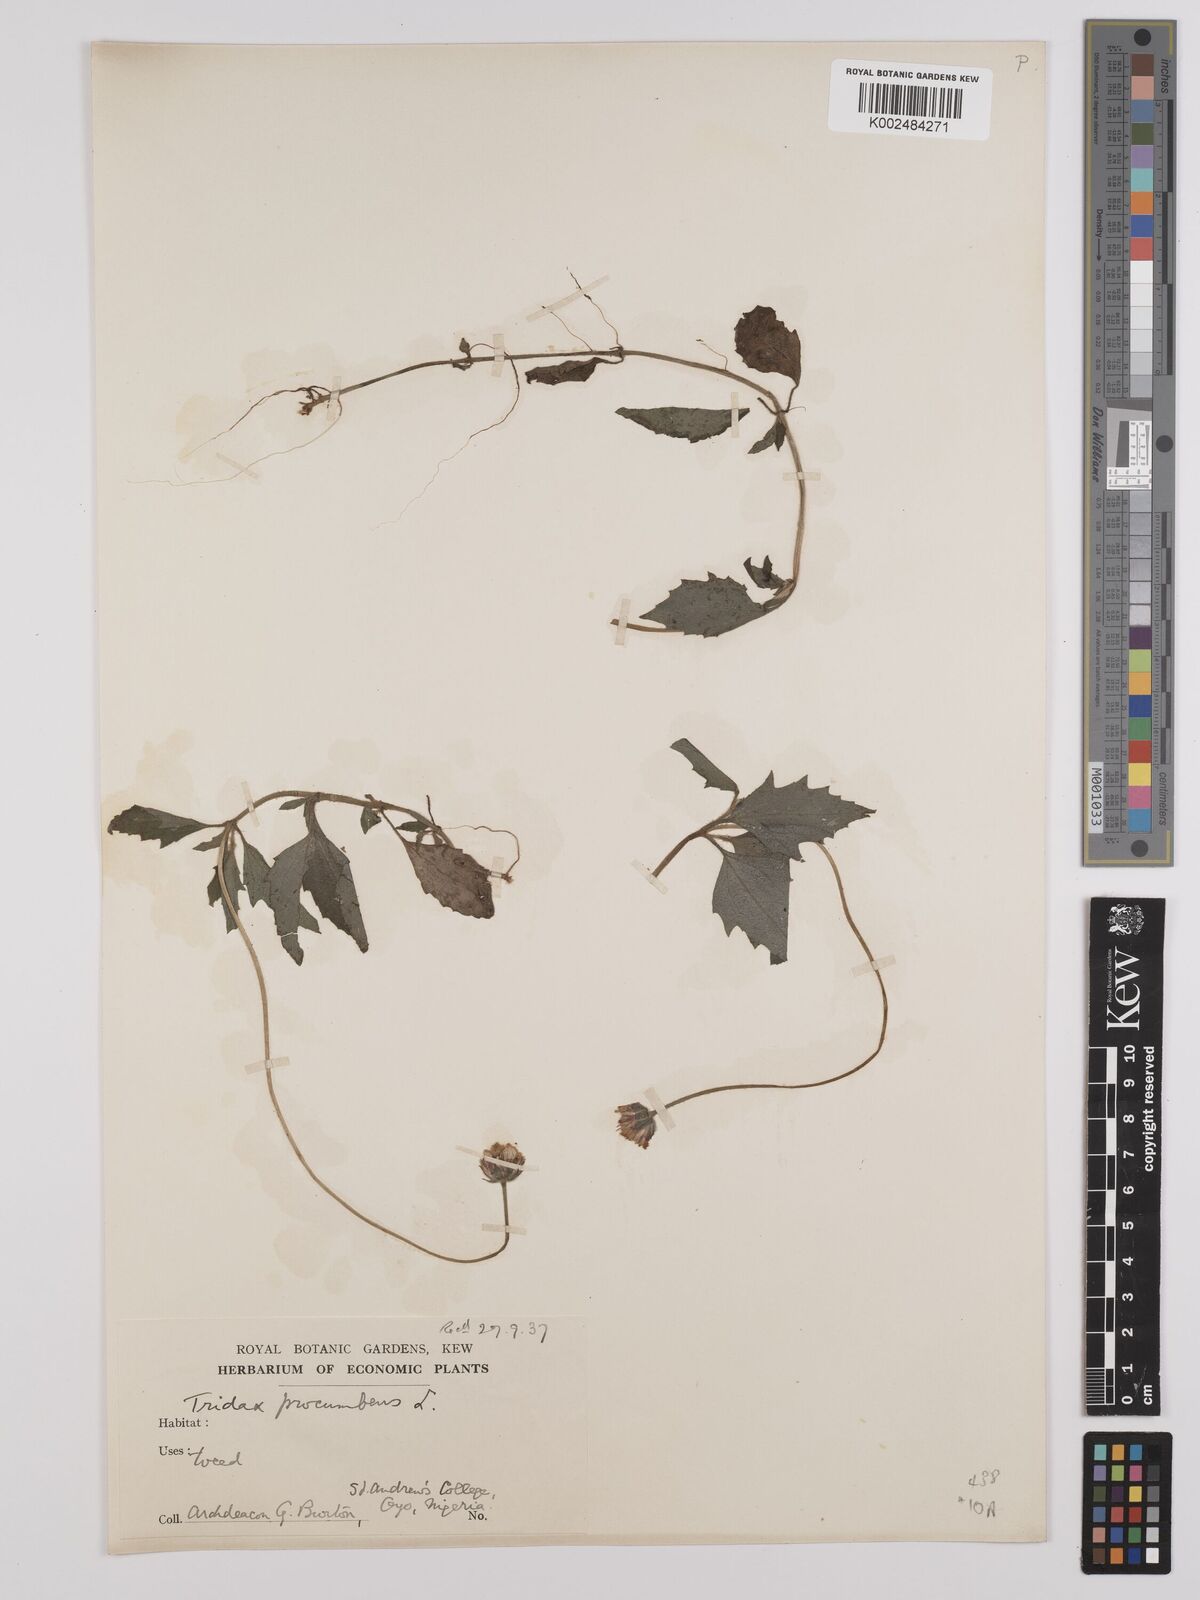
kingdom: Plantae
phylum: Tracheophyta
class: Magnoliopsida
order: Asterales
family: Asteraceae
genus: Tridax
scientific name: Tridax procumbens
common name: Coatbuttons
